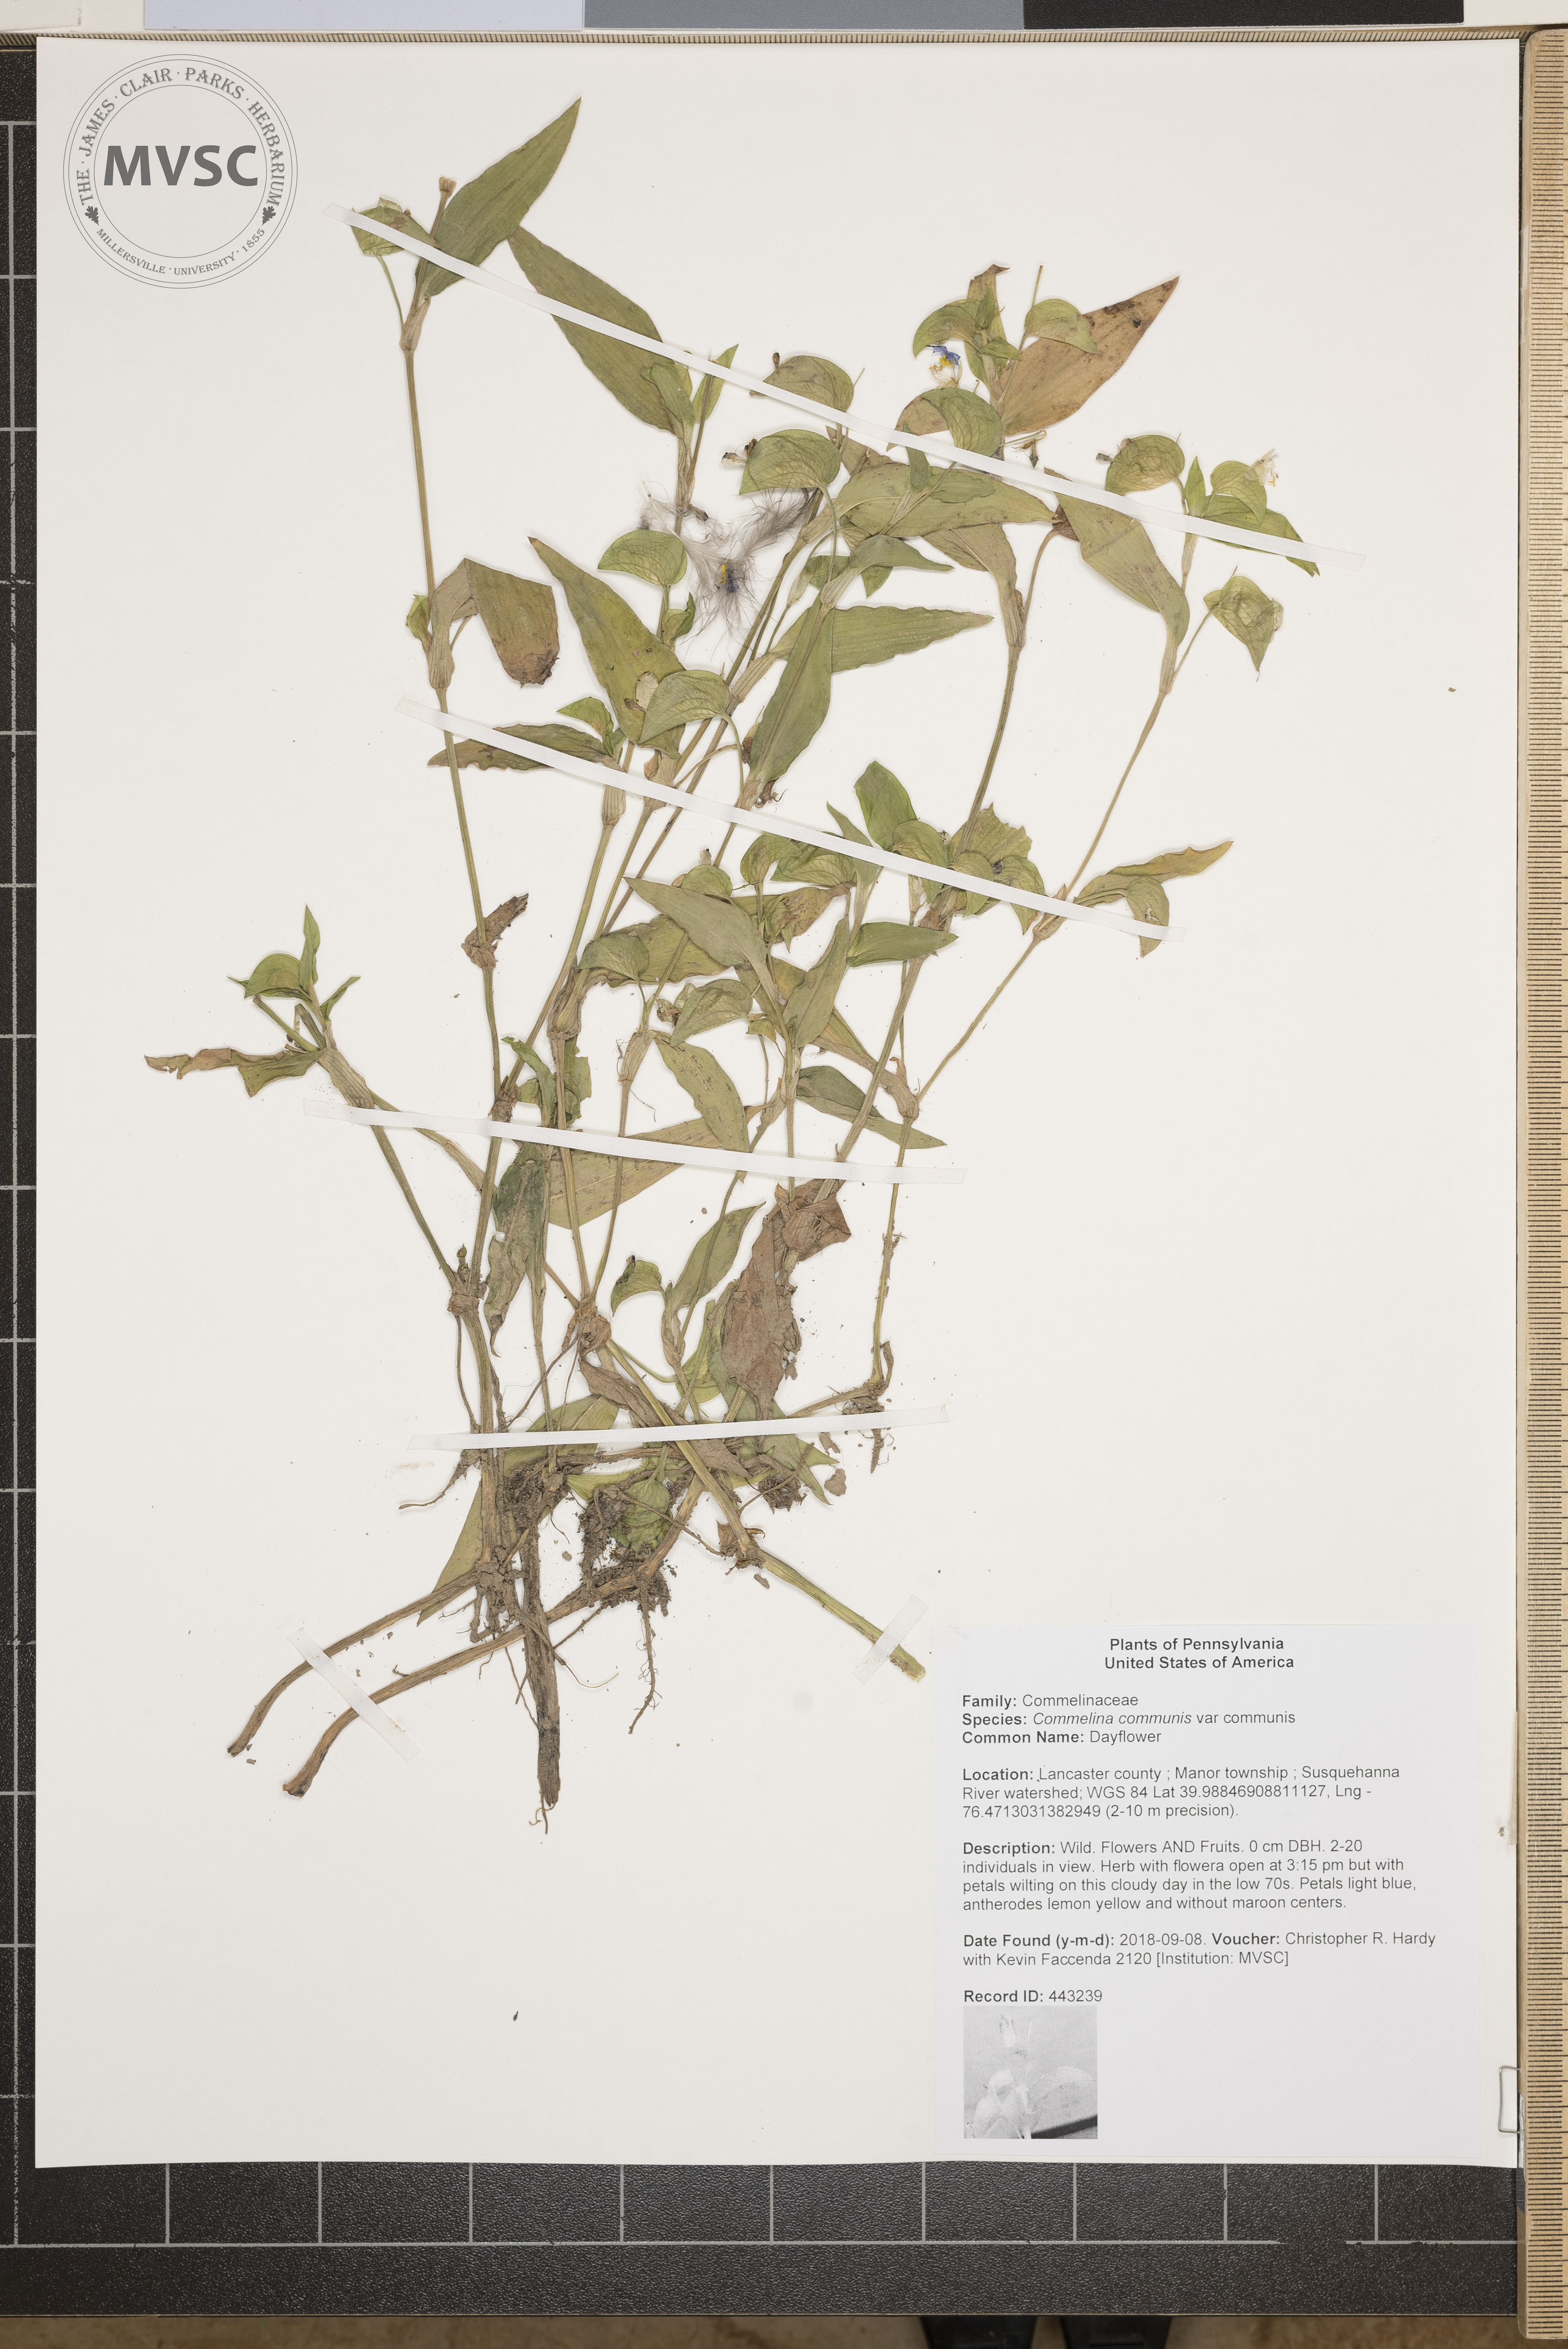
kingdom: Plantae
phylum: Tracheophyta
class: Liliopsida
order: Commelinales
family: Commelinaceae
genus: Commelina
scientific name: Commelina communis
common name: Dayflower
